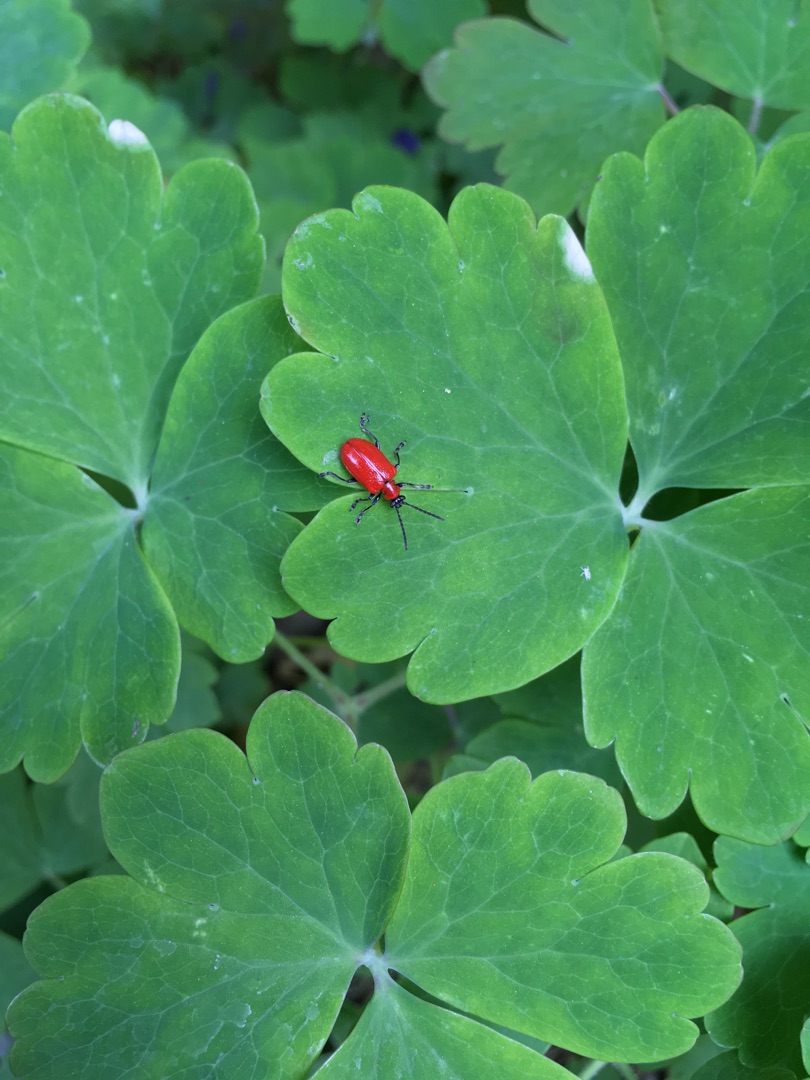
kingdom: Animalia
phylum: Arthropoda
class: Insecta
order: Coleoptera
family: Chrysomelidae
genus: Lilioceris
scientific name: Lilioceris lilii
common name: Liljebille
